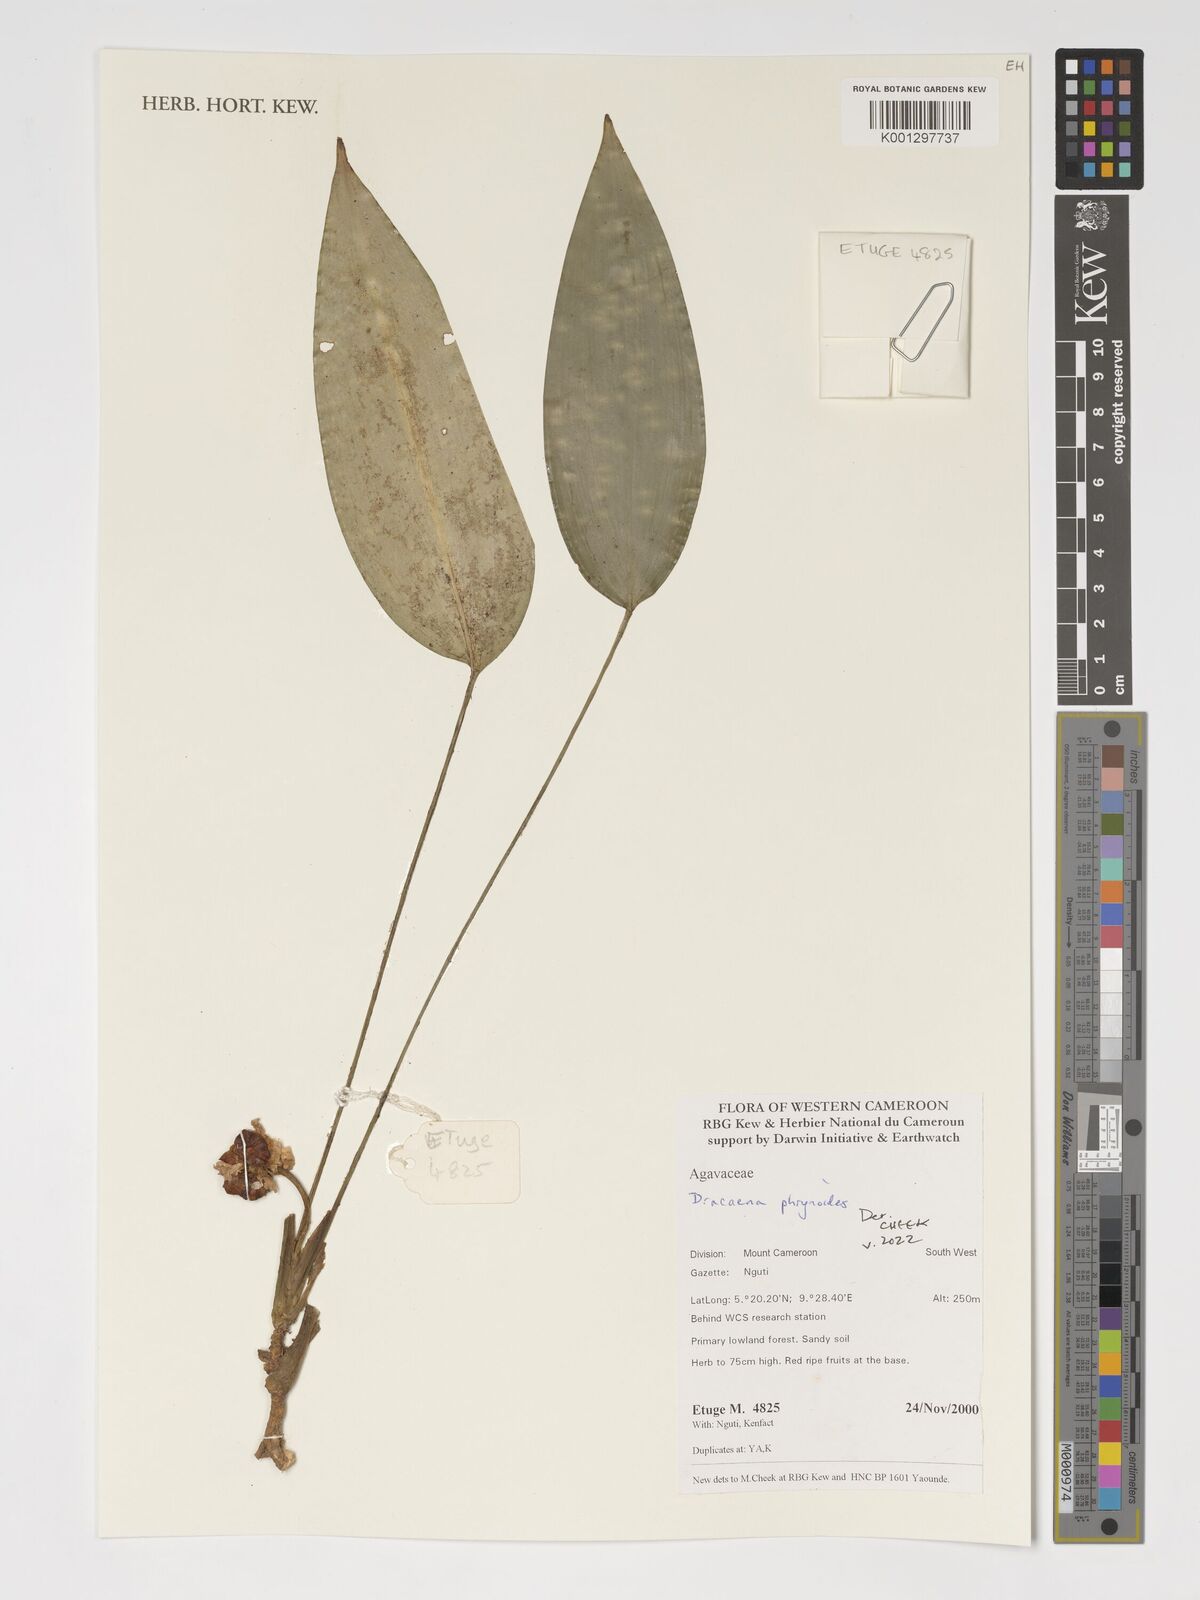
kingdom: Plantae
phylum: Tracheophyta
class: Liliopsida
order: Asparagales
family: Asparagaceae
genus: Dracaena
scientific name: Dracaena phrynioides
